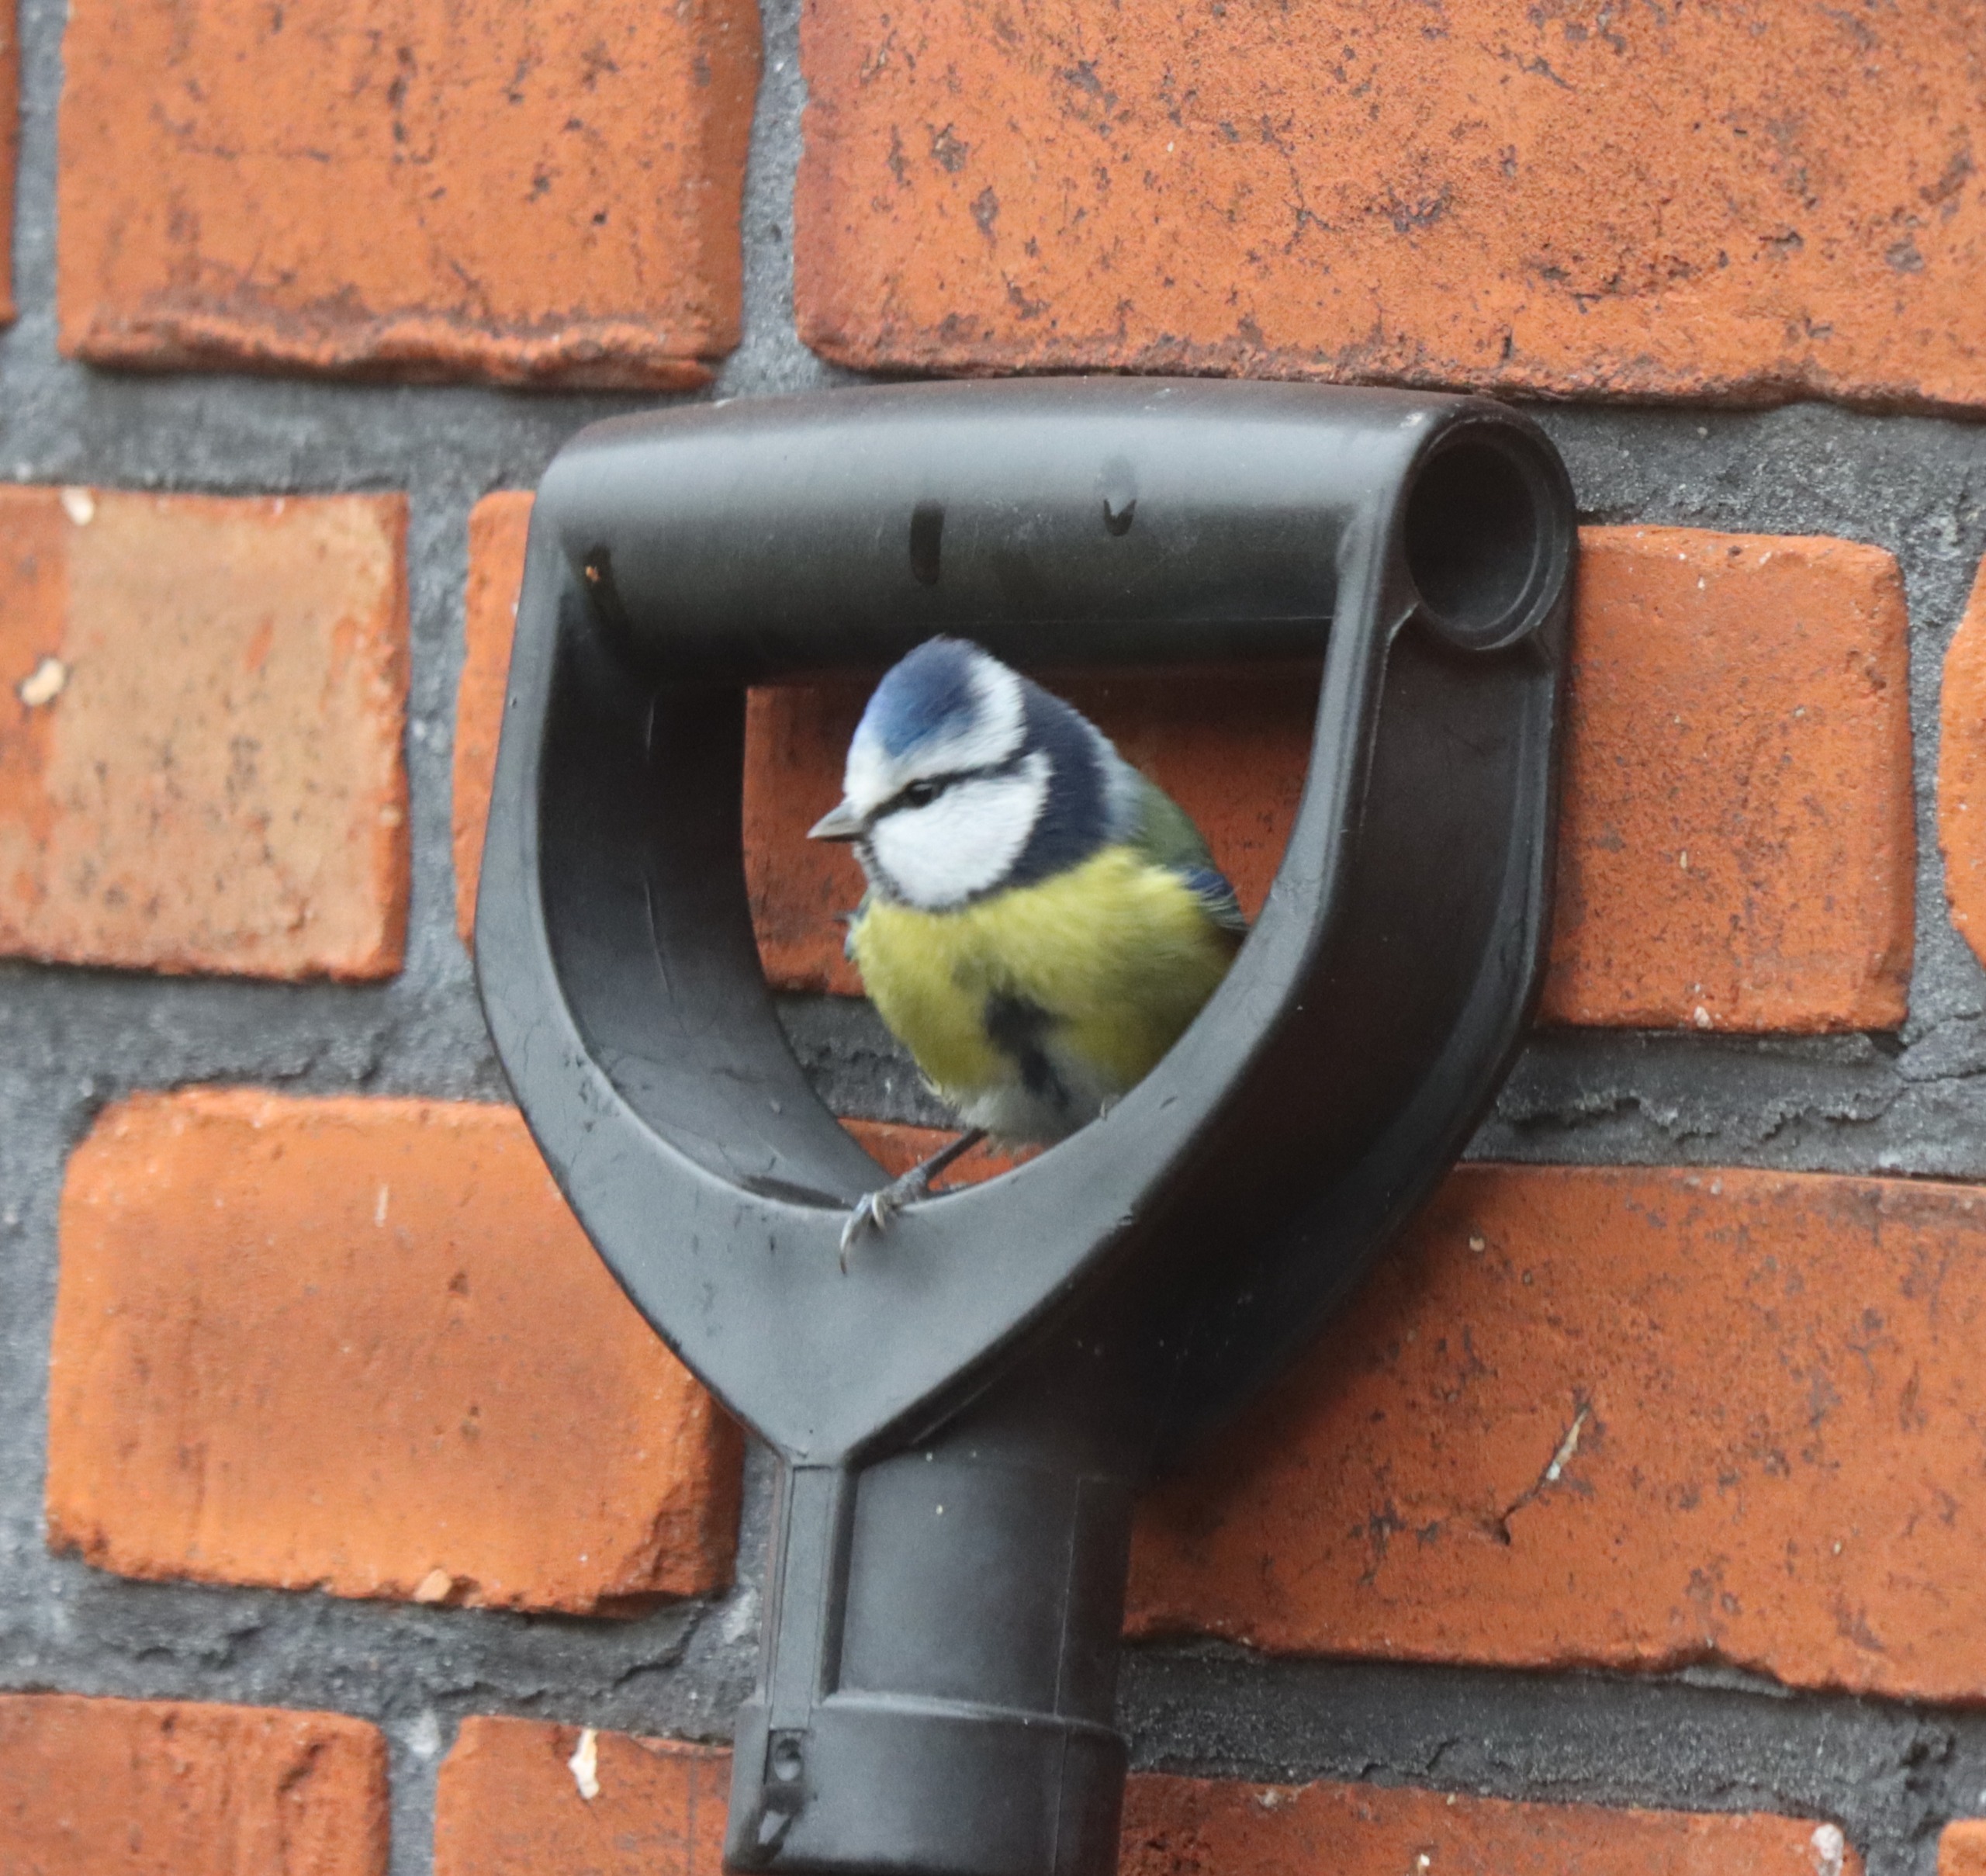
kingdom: Animalia
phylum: Chordata
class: Aves
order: Passeriformes
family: Paridae
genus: Cyanistes
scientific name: Cyanistes caeruleus
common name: Blåmejse
